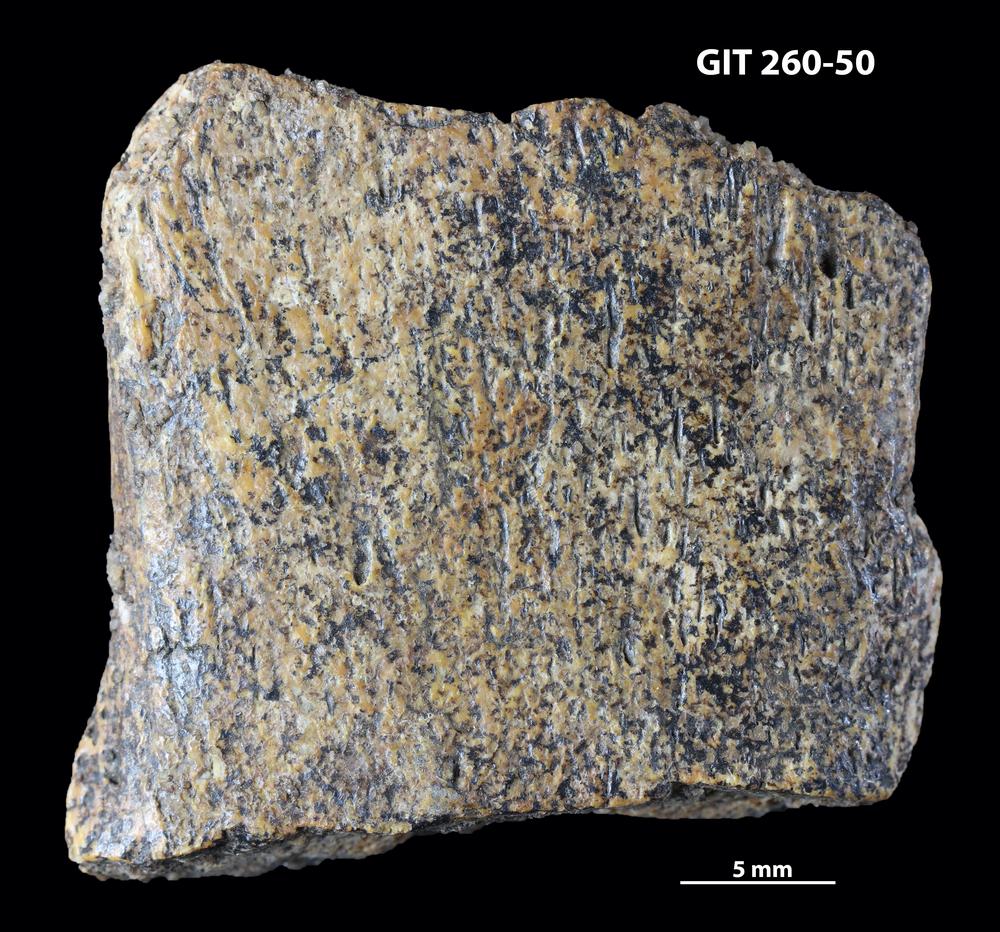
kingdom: Animalia
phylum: Chordata
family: Homostiidae
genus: Homostius
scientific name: Homostius
